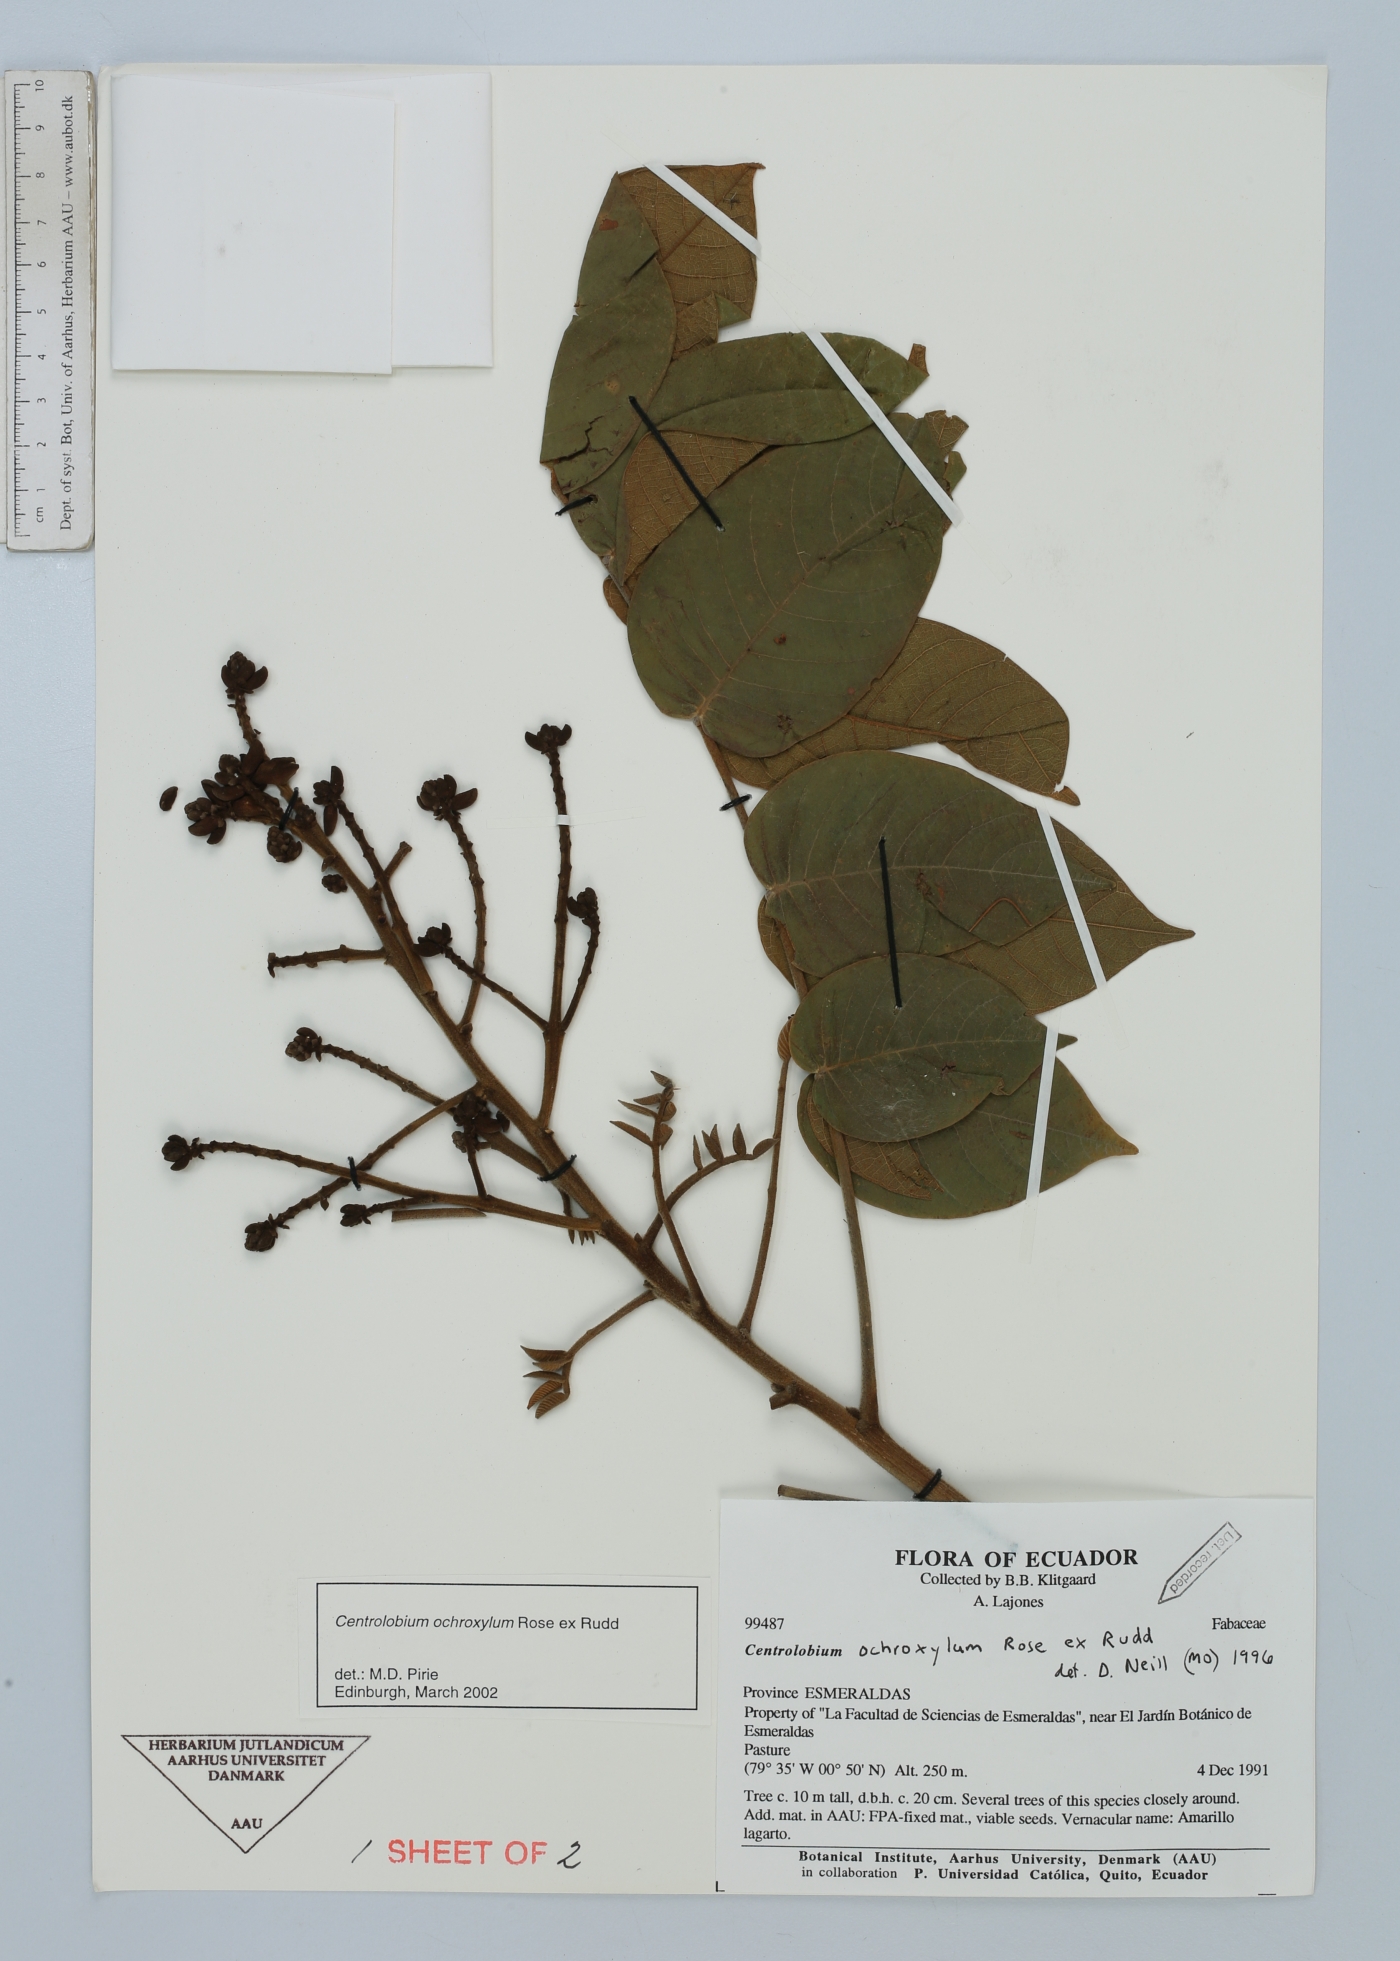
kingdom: Plantae
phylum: Tracheophyta
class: Magnoliopsida
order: Fabales
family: Fabaceae
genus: Centrolobium
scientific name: Centrolobium ochroxylum
